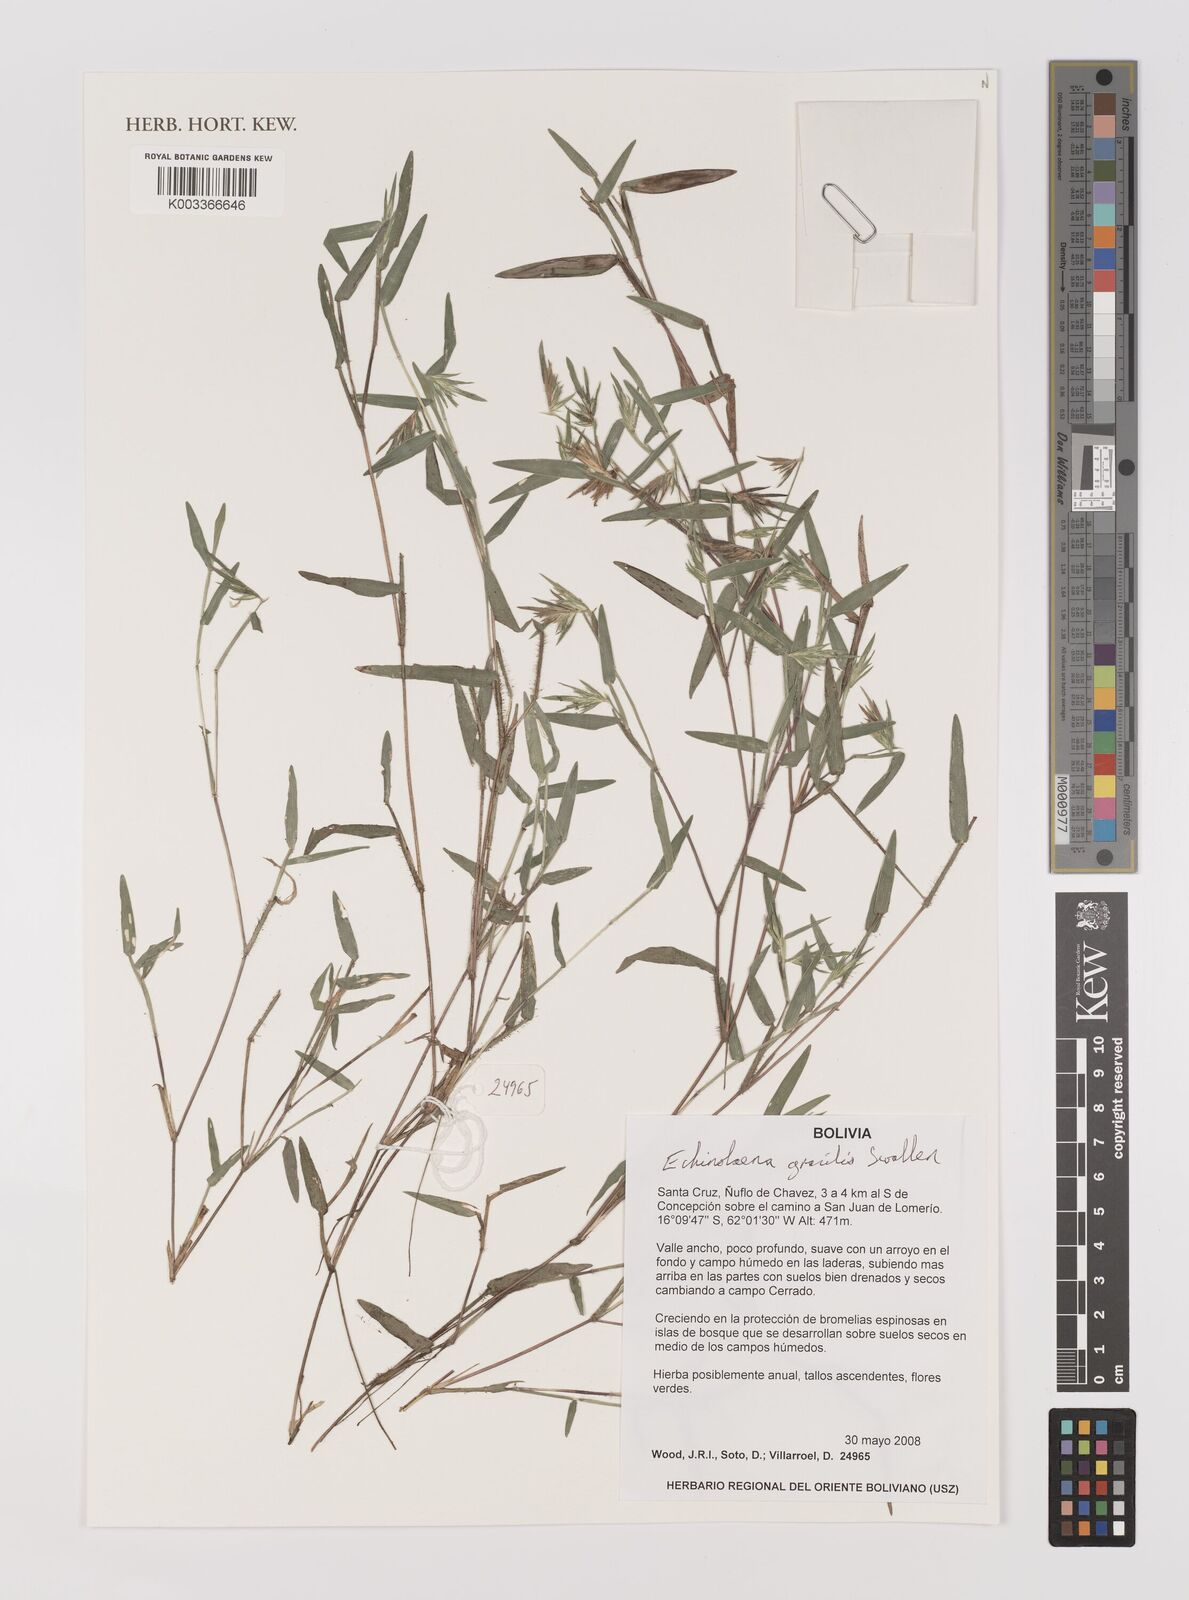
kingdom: Plantae
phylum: Tracheophyta
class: Liliopsida
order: Poales
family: Poaceae
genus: Echinolaena
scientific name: Echinolaena gracilis
